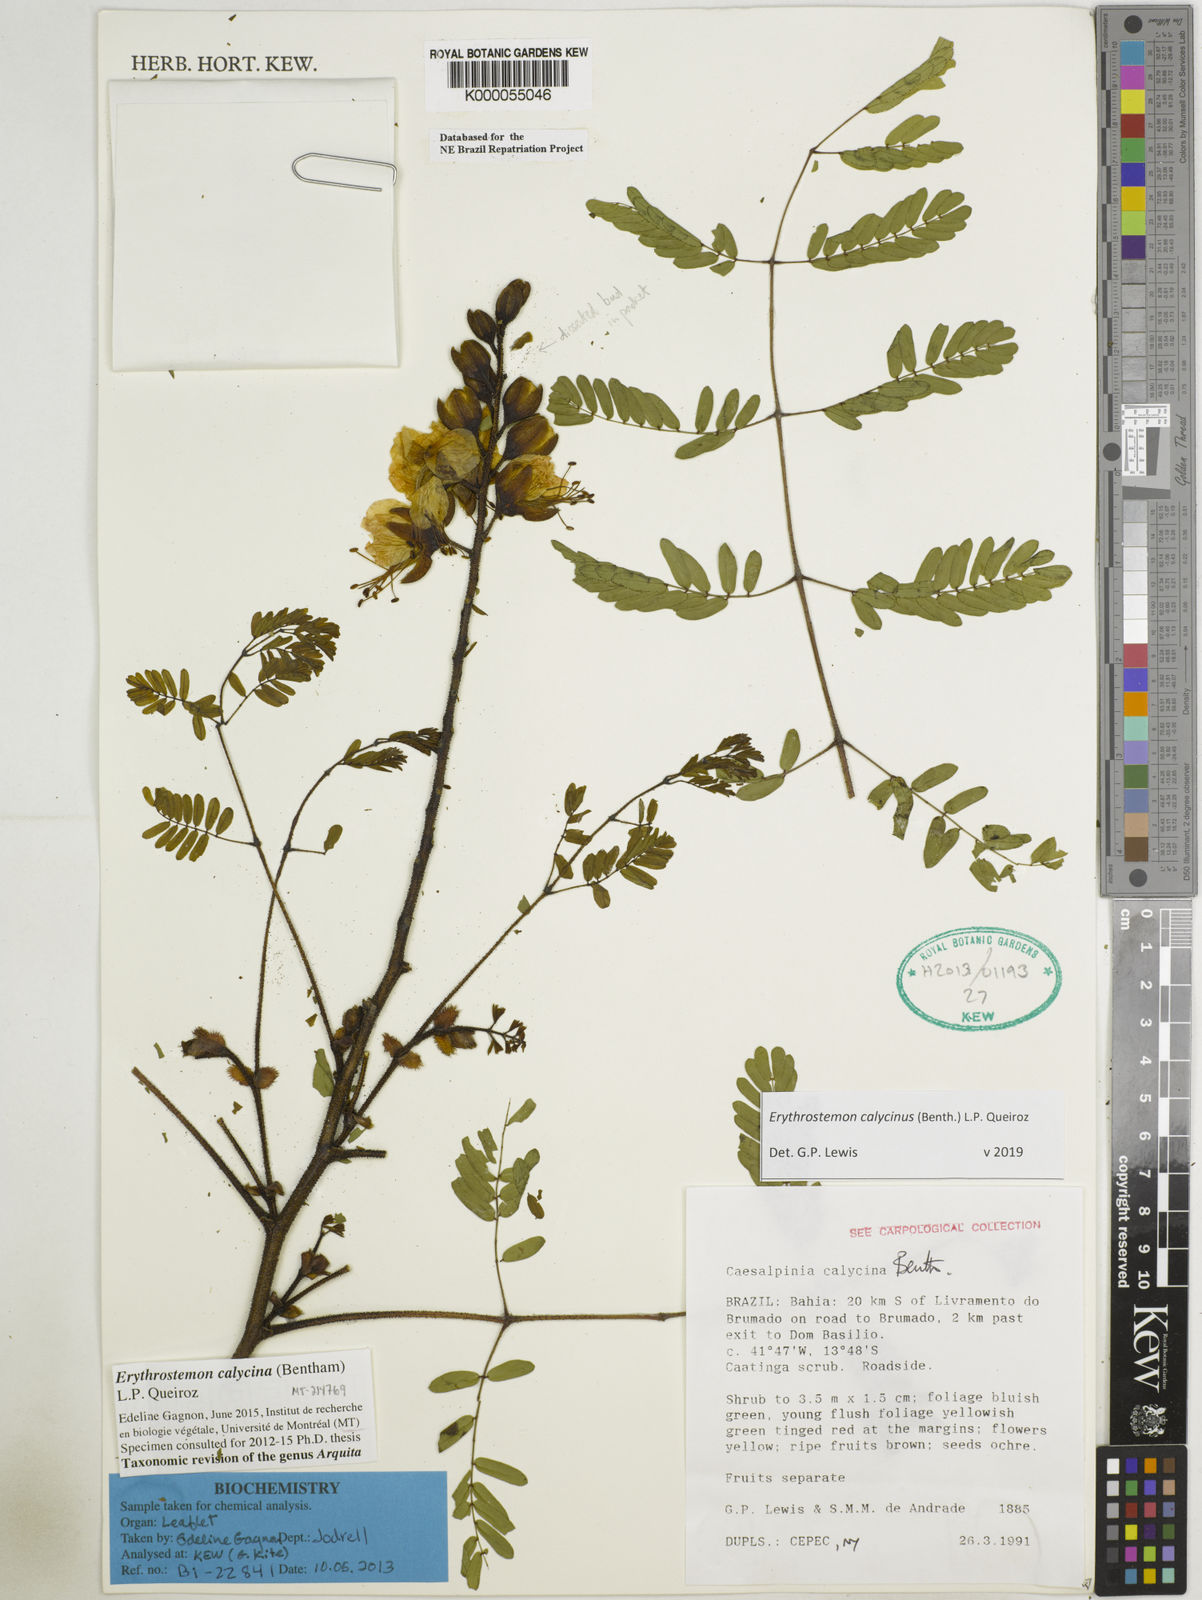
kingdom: Plantae
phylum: Tracheophyta
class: Magnoliopsida
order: Fabales
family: Fabaceae
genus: Erythrostemon
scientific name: Erythrostemon calycinus
